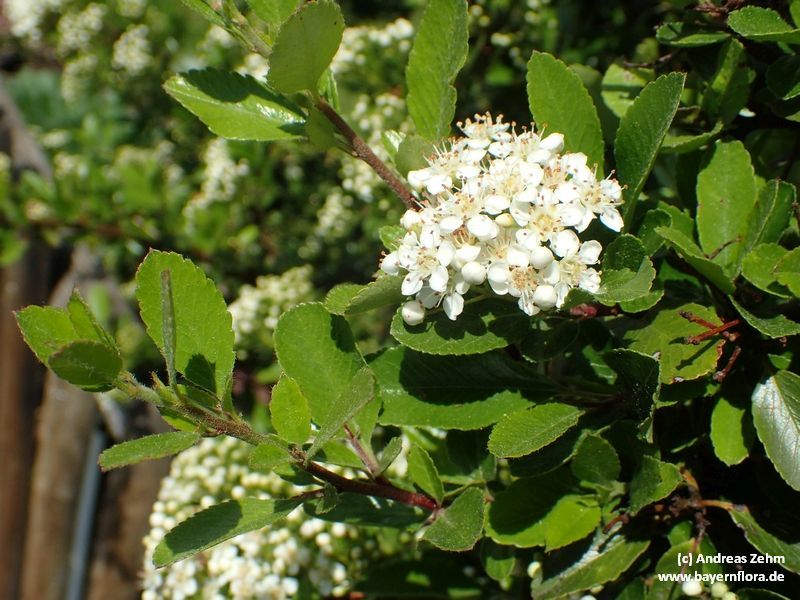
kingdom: Plantae
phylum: Tracheophyta
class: Magnoliopsida
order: Rosales
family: Rosaceae
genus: Pyracantha
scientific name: Pyracantha coccinea
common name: Firethorn
